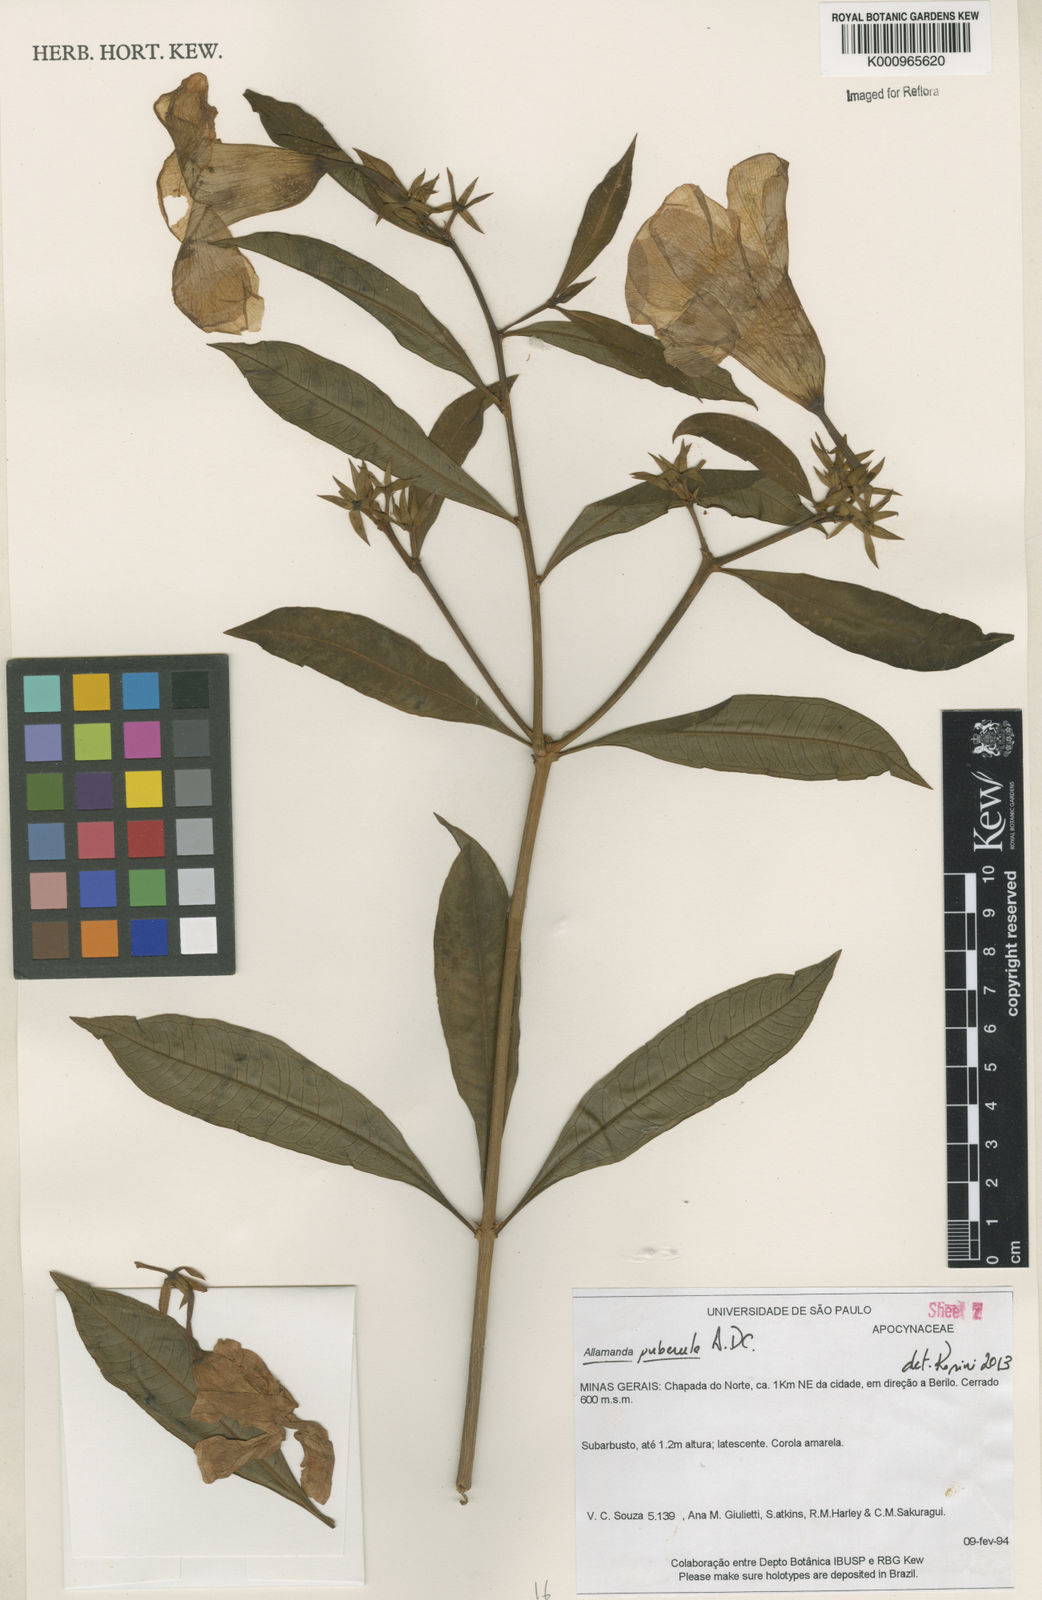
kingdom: Plantae
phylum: Tracheophyta
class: Magnoliopsida
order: Gentianales
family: Apocynaceae
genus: Allamanda
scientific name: Allamanda puberula
